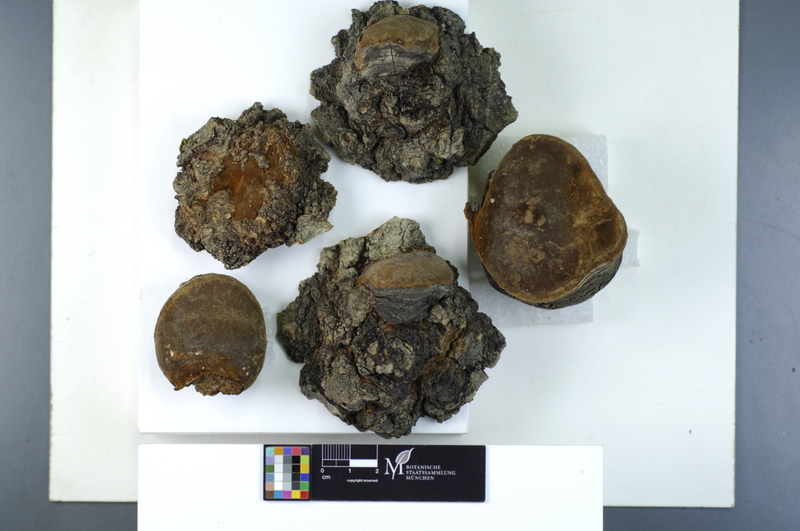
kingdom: Fungi
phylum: Basidiomycota
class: Agaricomycetes
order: Hymenochaetales
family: Hymenochaetaceae
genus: Phellinus
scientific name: Phellinus tremulae
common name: Aspen bracket
